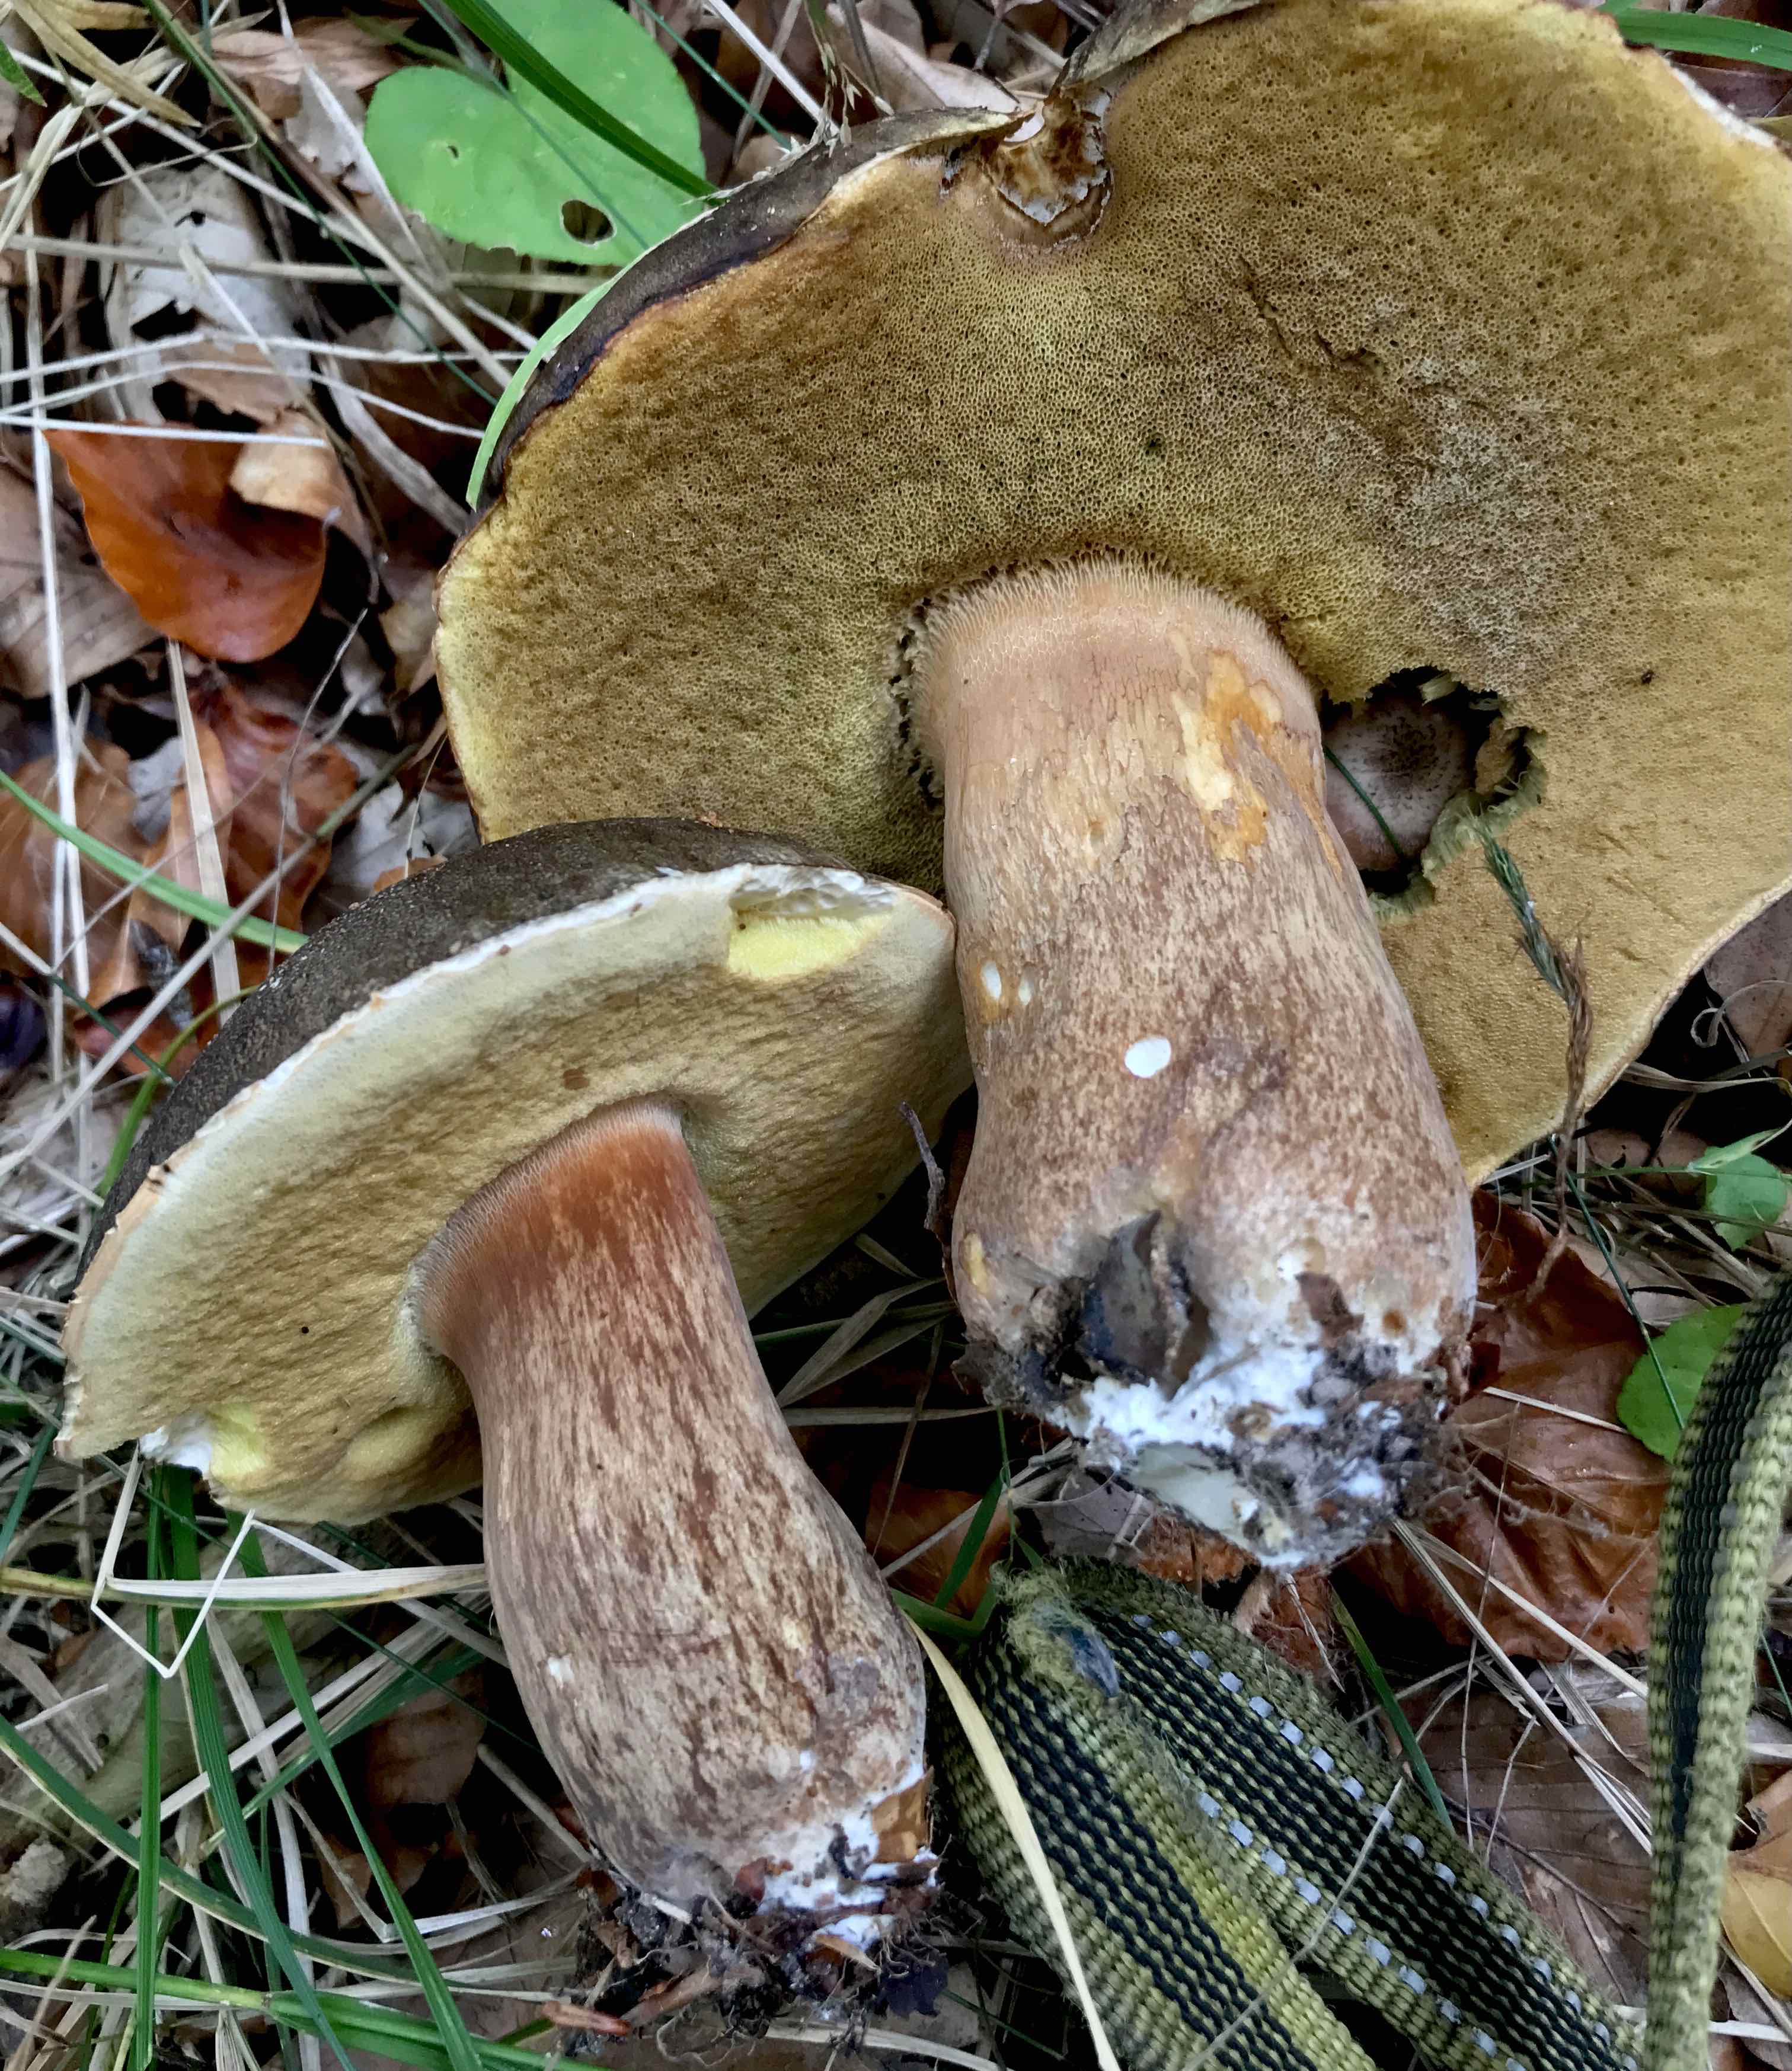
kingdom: Fungi
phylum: Basidiomycota
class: Agaricomycetes
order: Boletales
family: Boletaceae
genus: Boletus
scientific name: Boletus edulis
